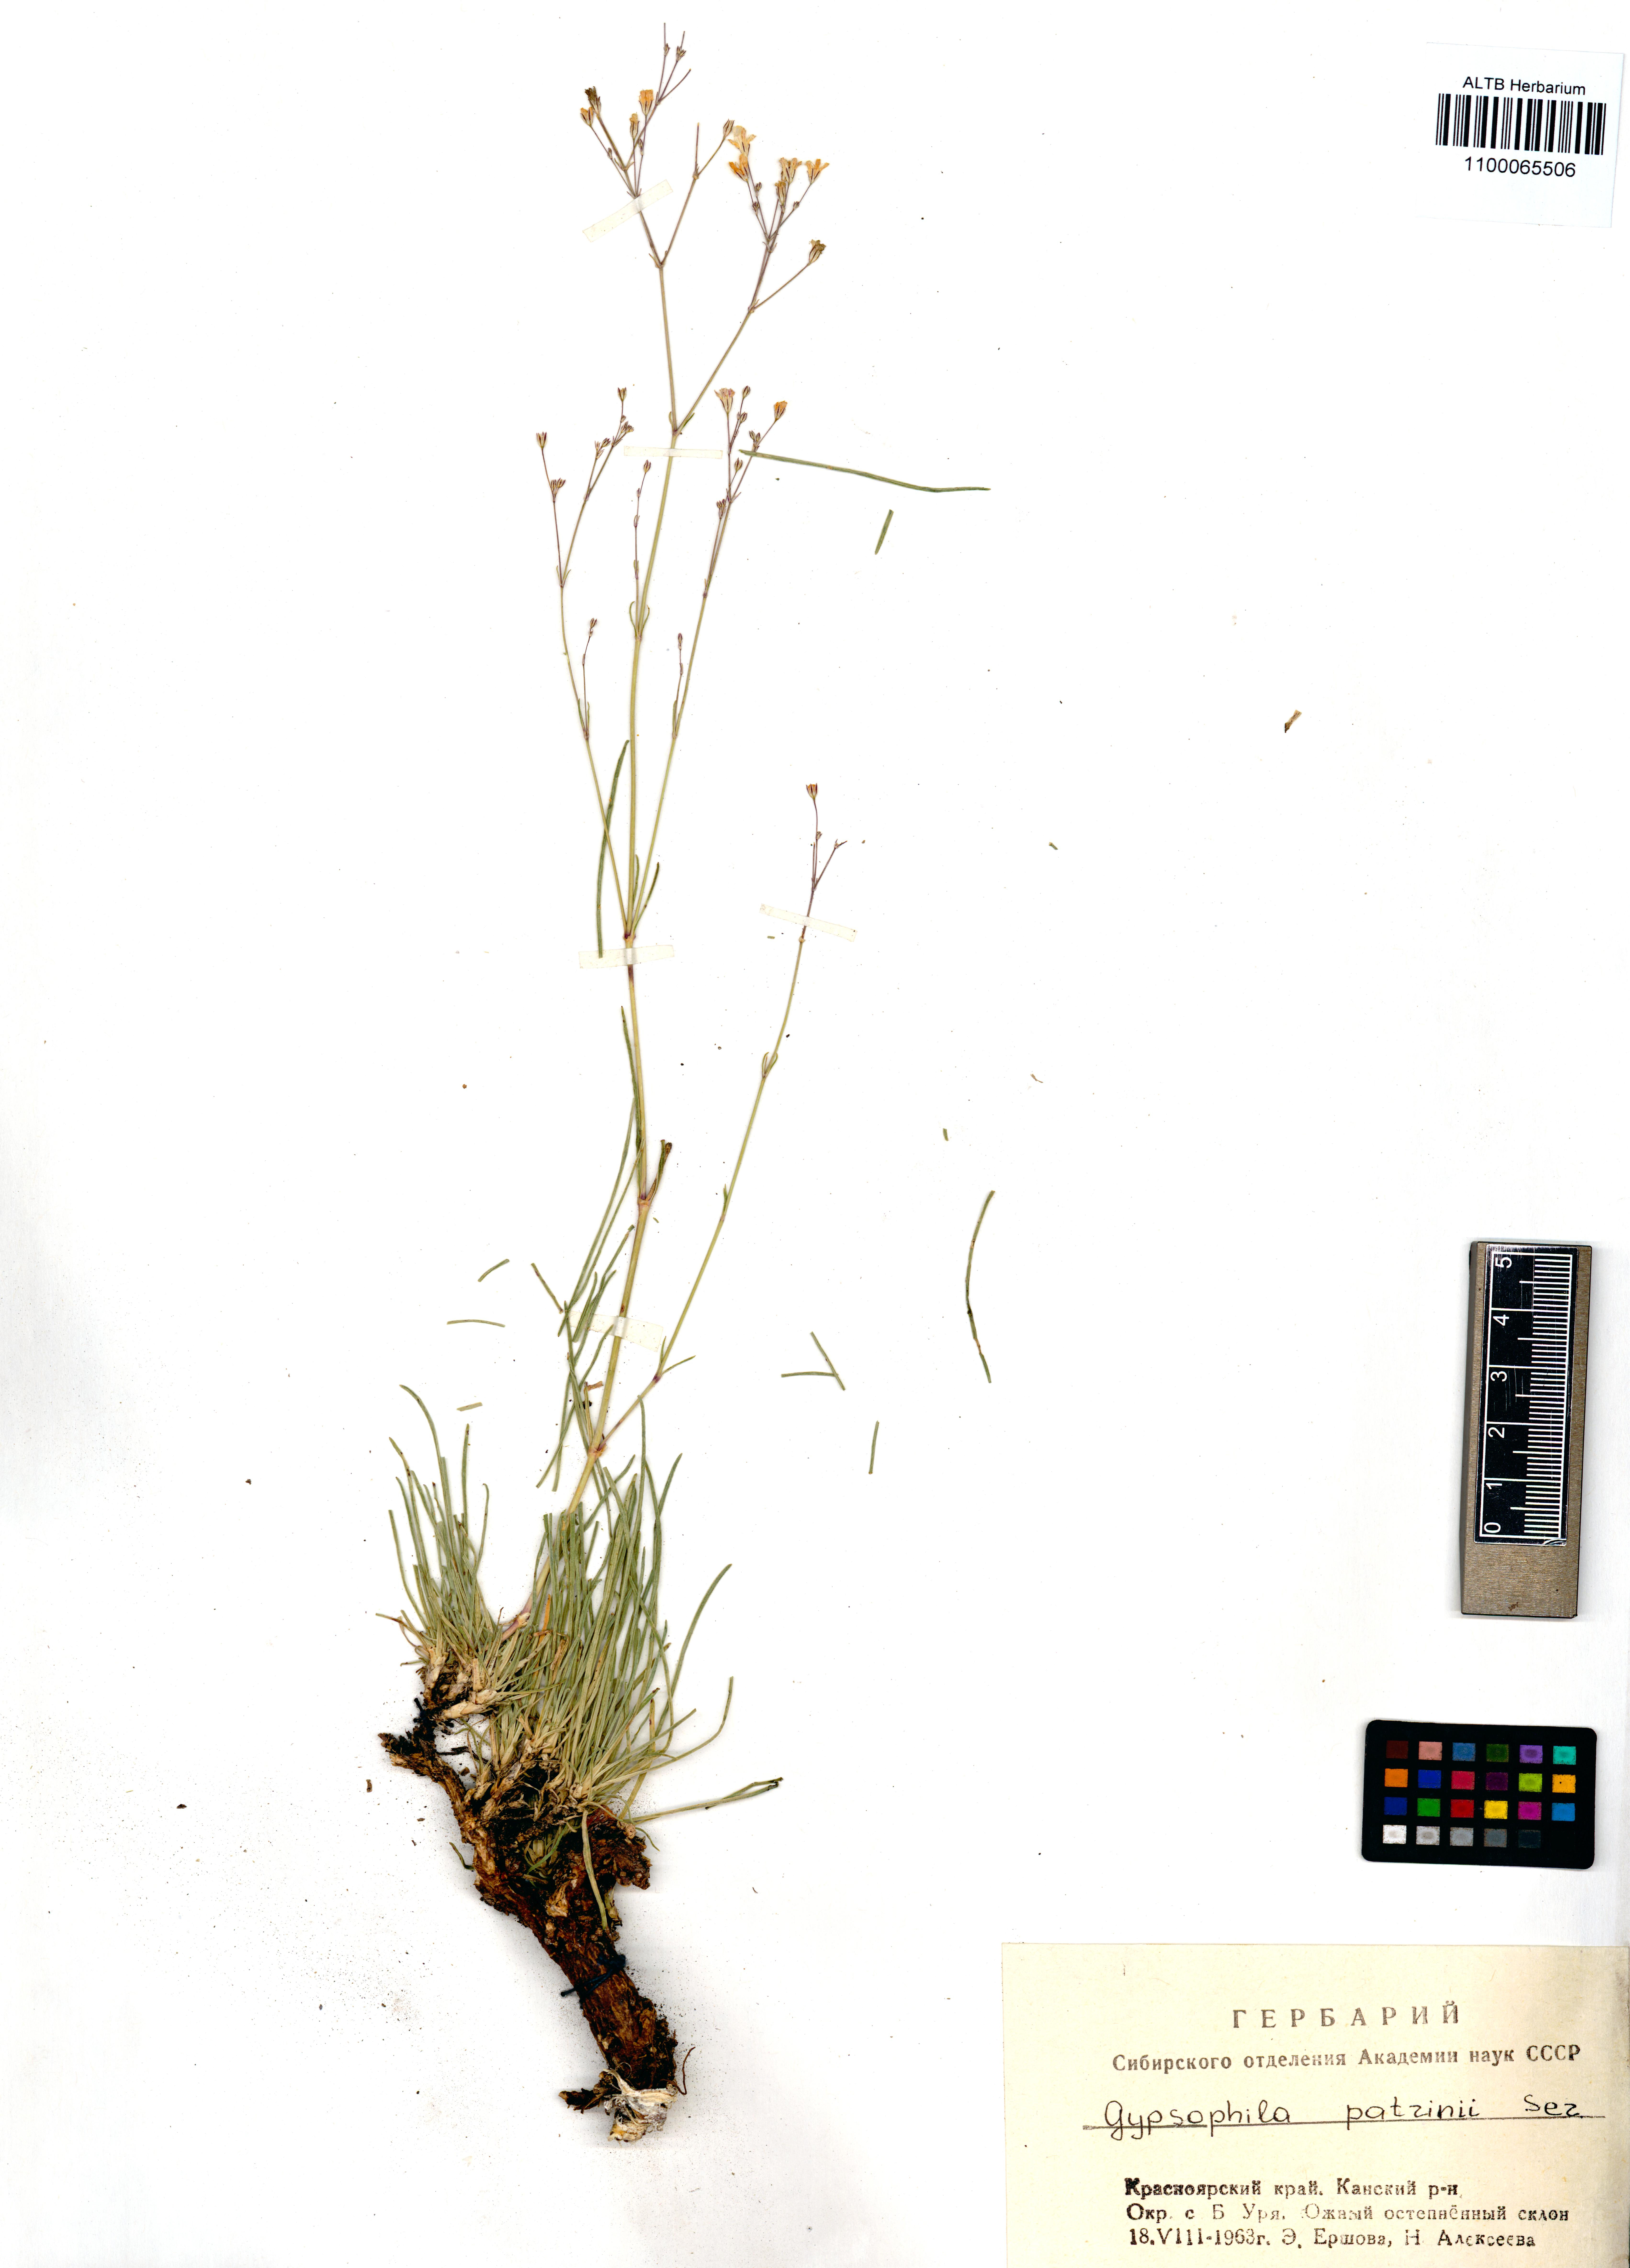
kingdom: Plantae
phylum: Tracheophyta
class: Magnoliopsida
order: Caryophyllales
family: Caryophyllaceae
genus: Gypsophila
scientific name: Gypsophila patrinii
